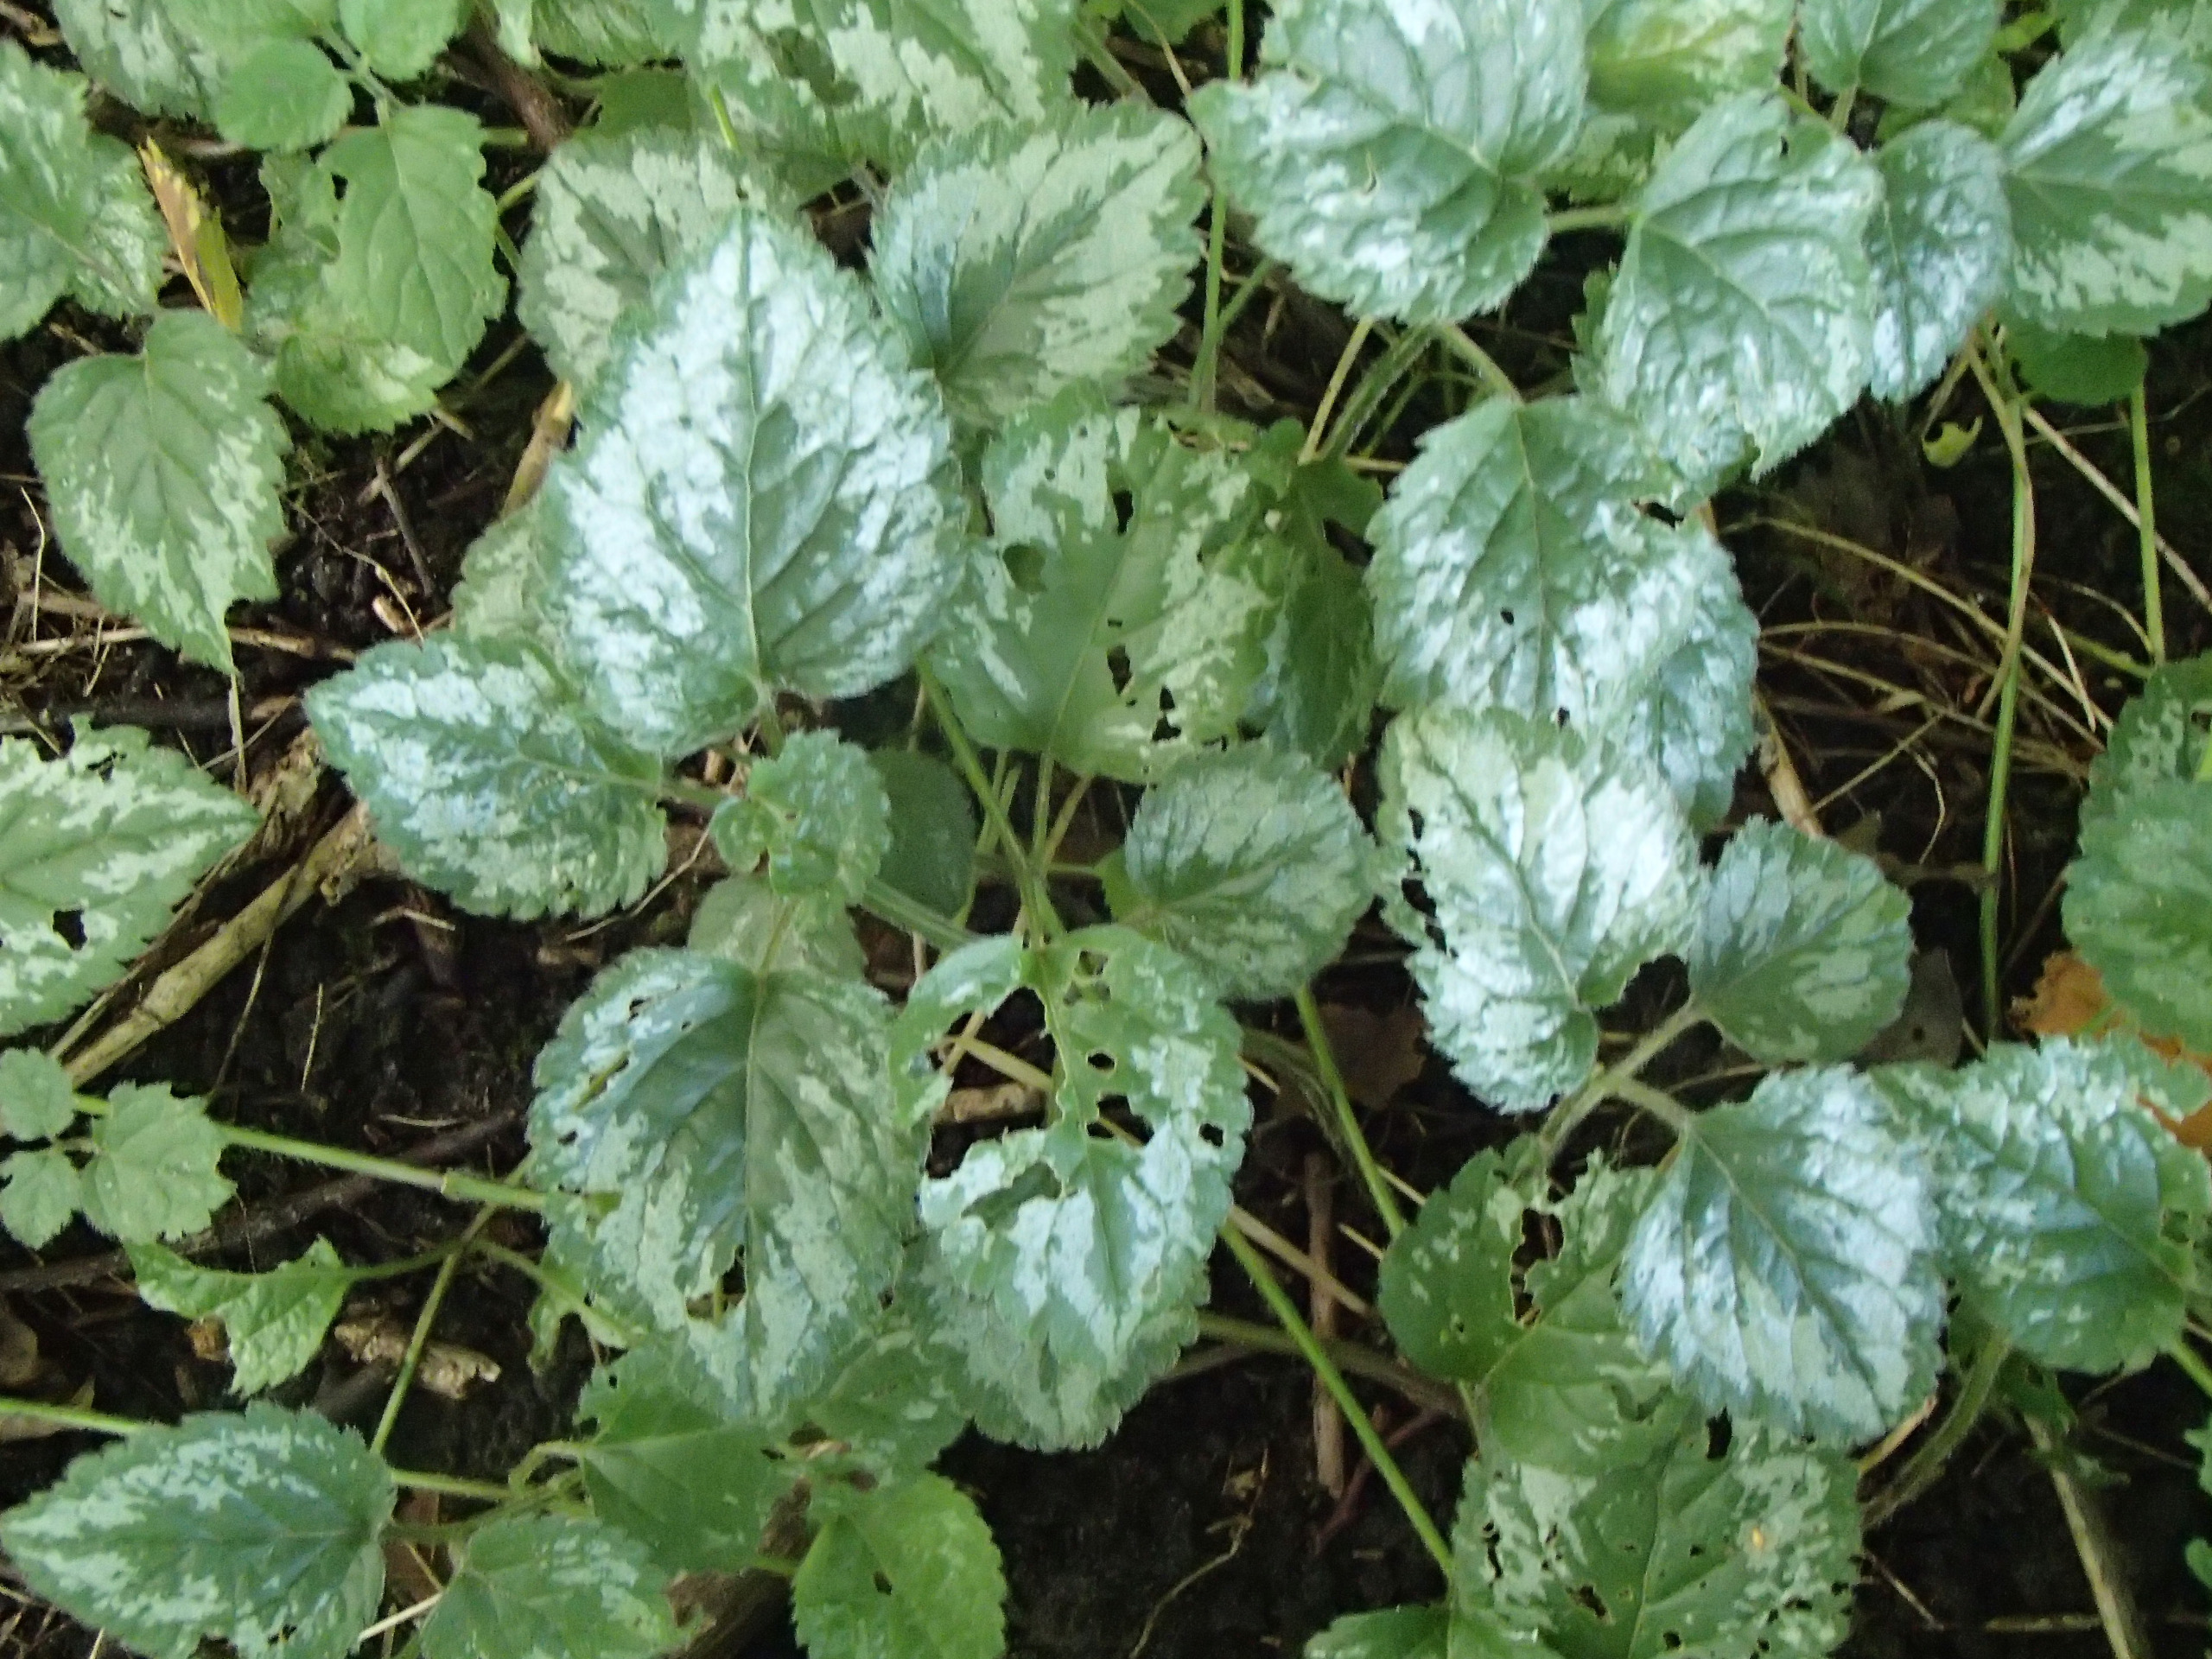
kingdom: Plantae
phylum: Tracheophyta
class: Magnoliopsida
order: Lamiales
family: Lamiaceae
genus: Lamium
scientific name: Lamium galeobdolon
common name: Have-guldnælde
